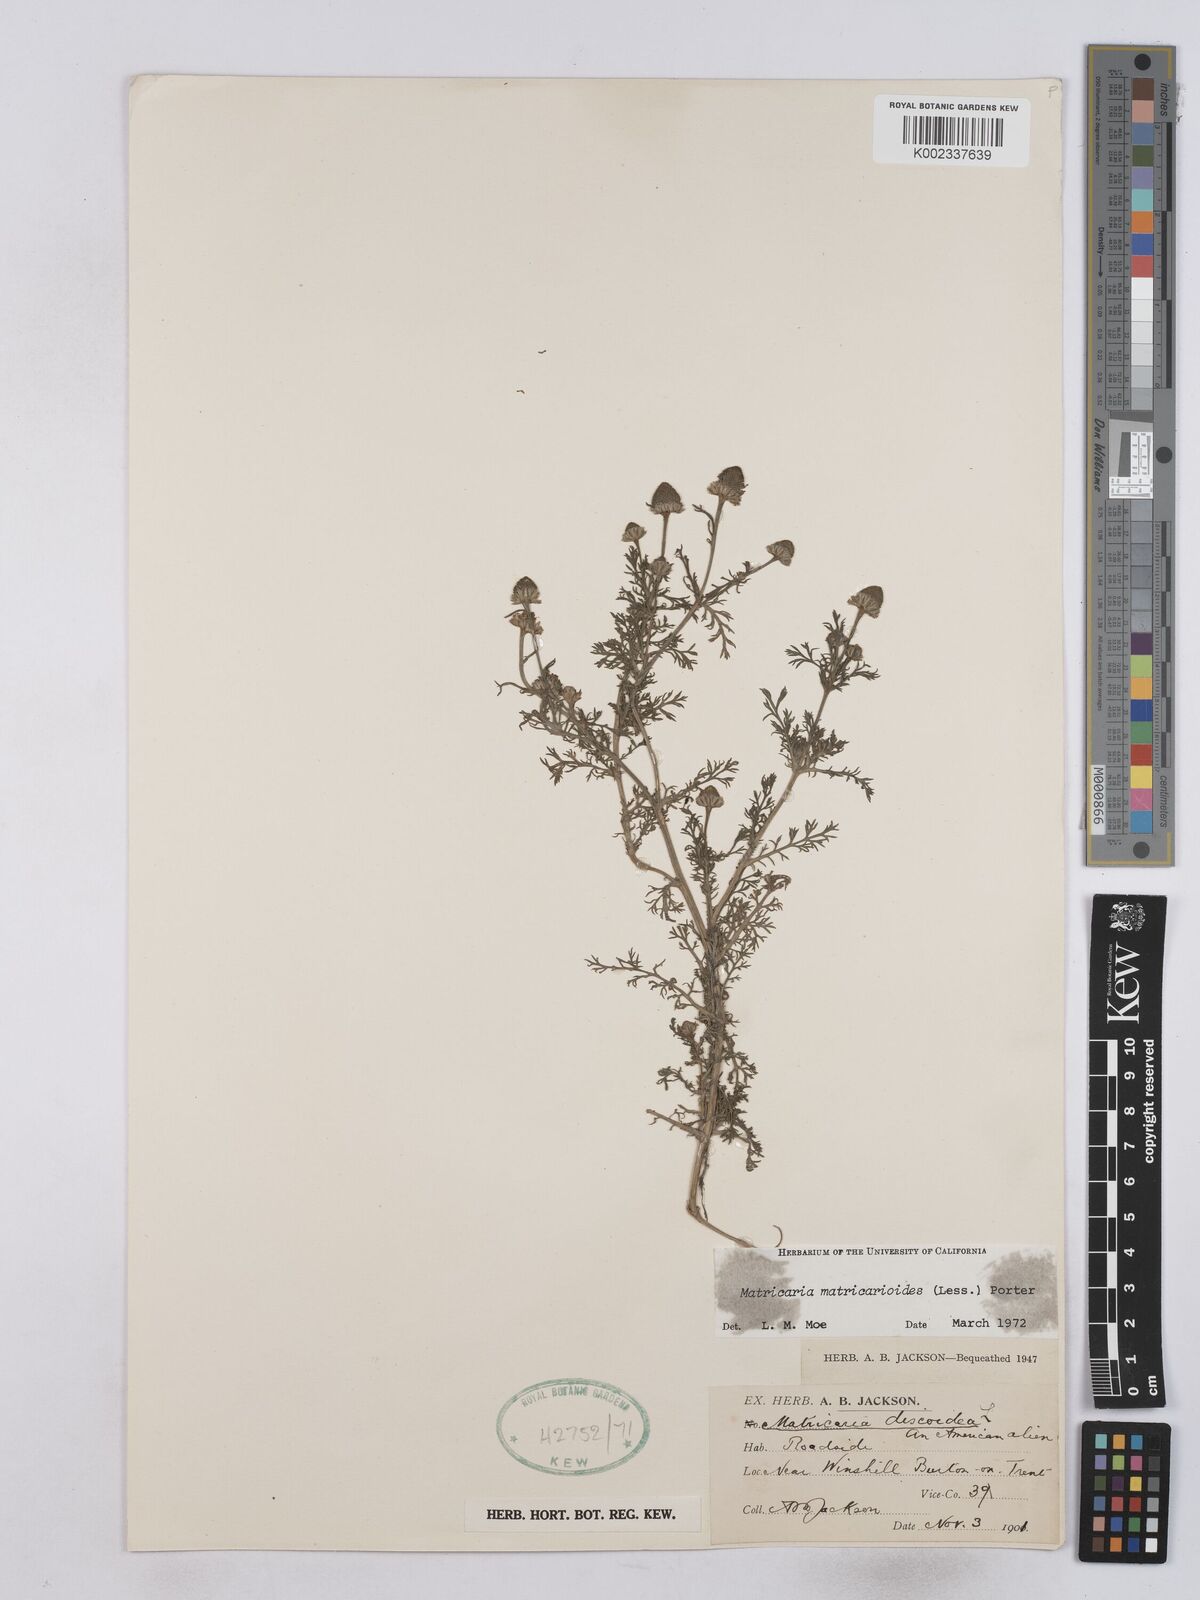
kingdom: Plantae
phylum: Tracheophyta
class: Magnoliopsida
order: Asterales
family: Asteraceae
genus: Matricaria
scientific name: Matricaria discoidea
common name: Disc mayweed
